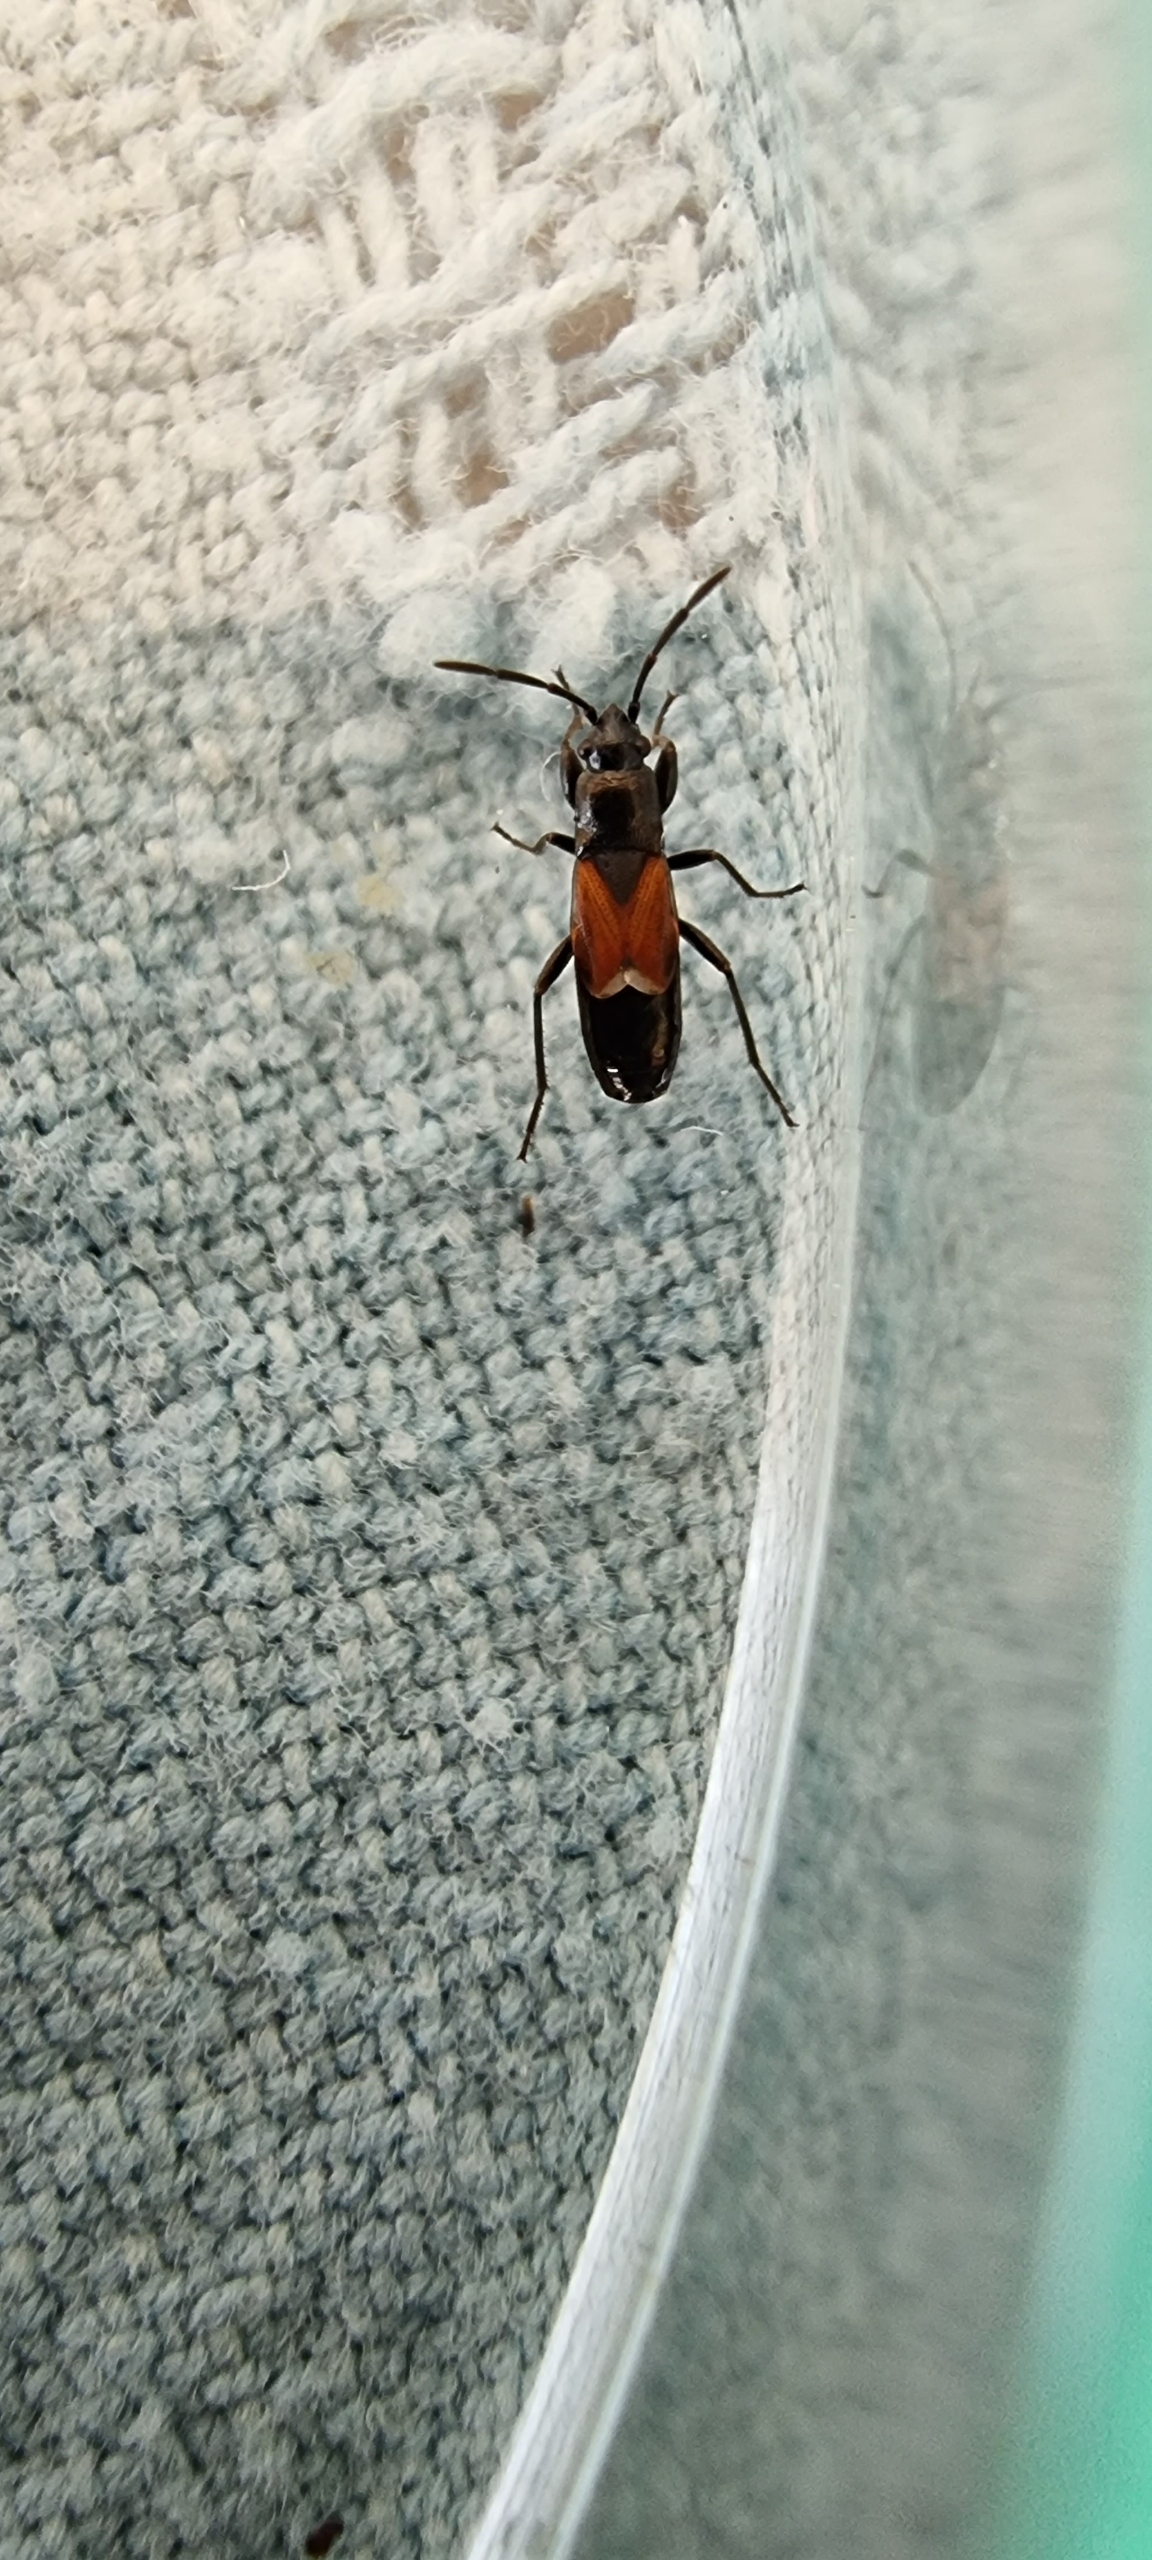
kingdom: Animalia
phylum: Arthropoda
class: Insecta
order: Hemiptera
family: Rhyparochromidae
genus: Pterotmetus
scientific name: Pterotmetus staphyliniformis
